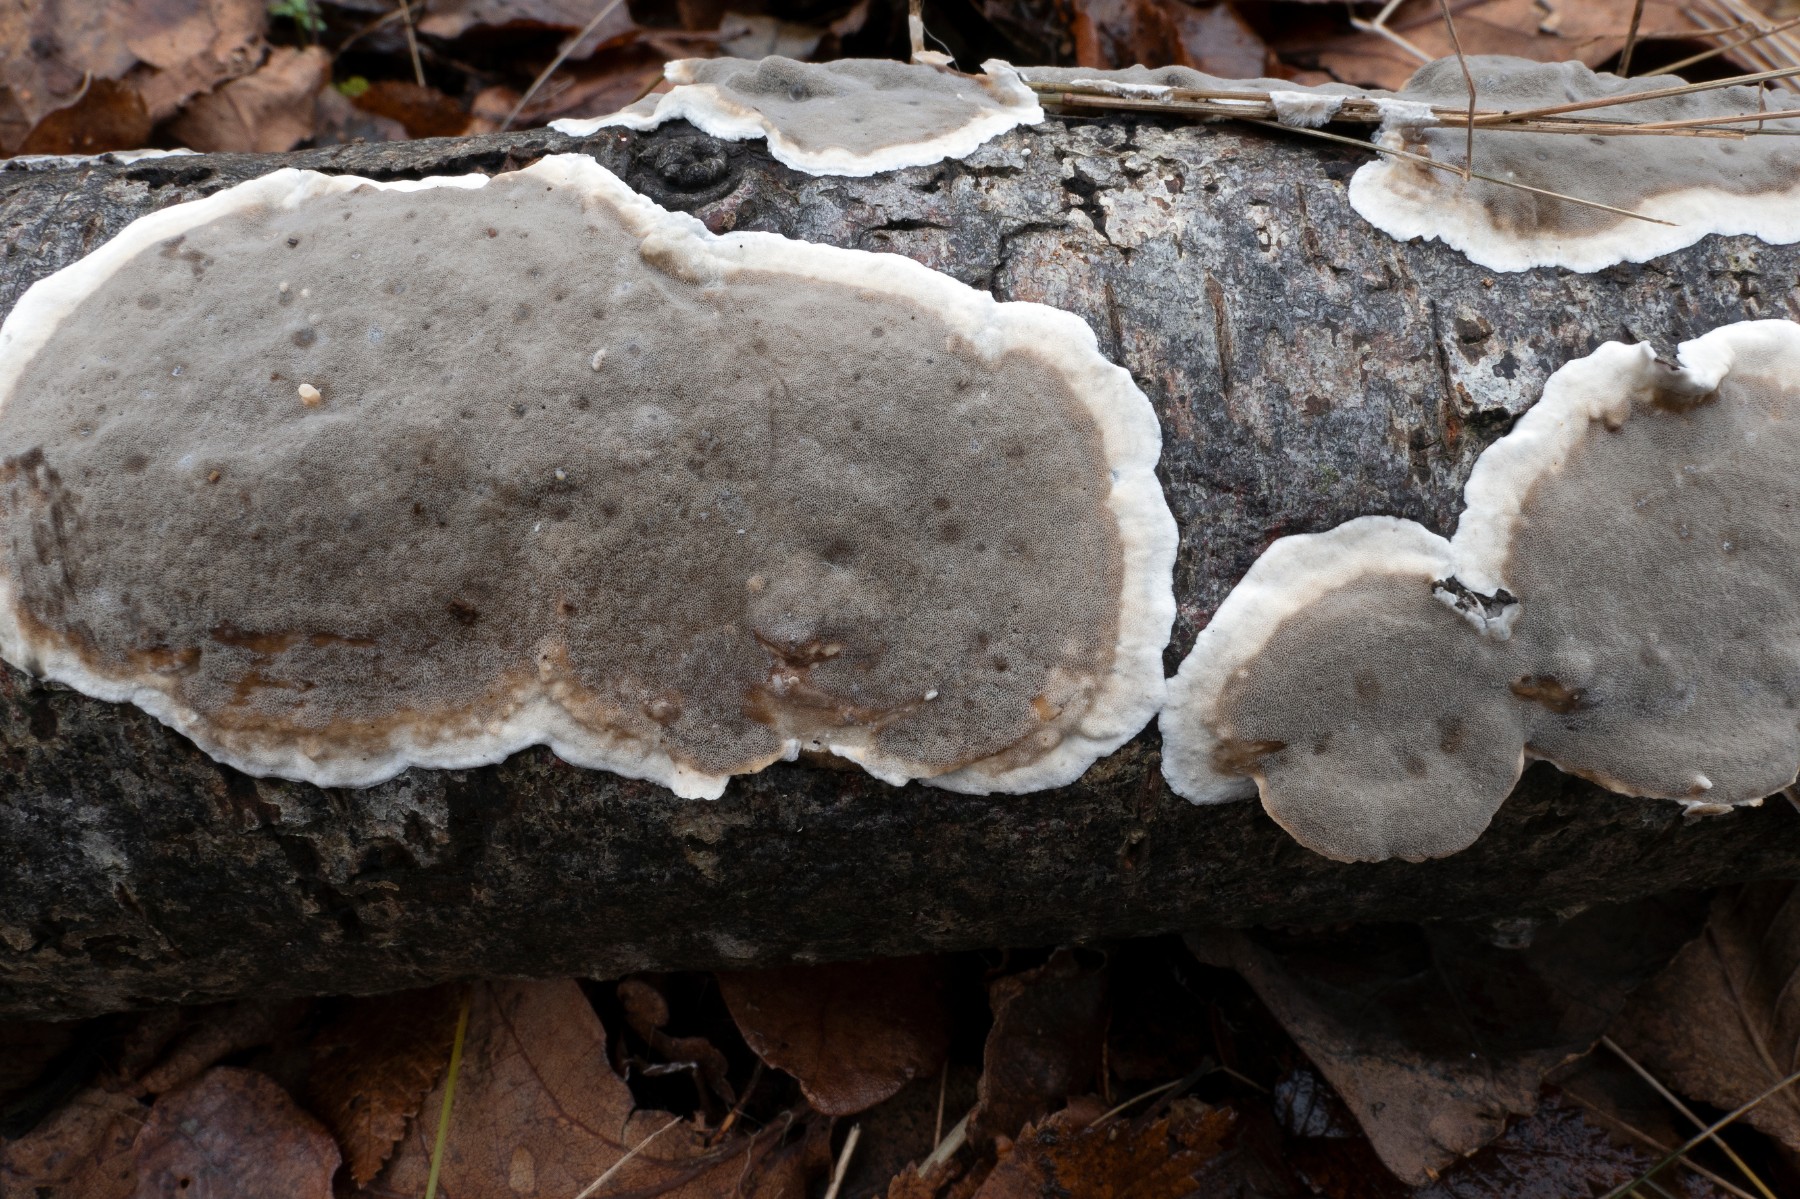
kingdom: Fungi
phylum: Basidiomycota
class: Agaricomycetes
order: Polyporales
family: Phanerochaetaceae
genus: Bjerkandera
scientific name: Bjerkandera adusta
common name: sveden sodporesvamp
